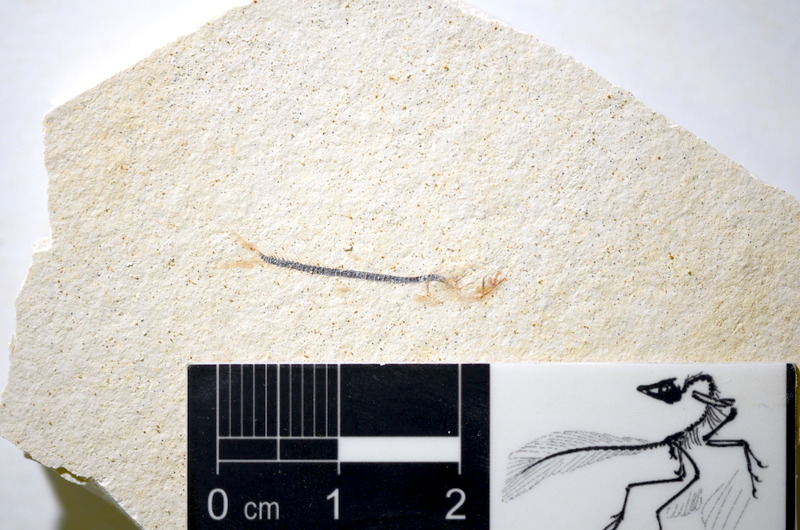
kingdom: Animalia
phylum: Chordata
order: Salmoniformes
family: Orthogonikleithridae
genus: Orthogonikleithrus
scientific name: Orthogonikleithrus hoelli
